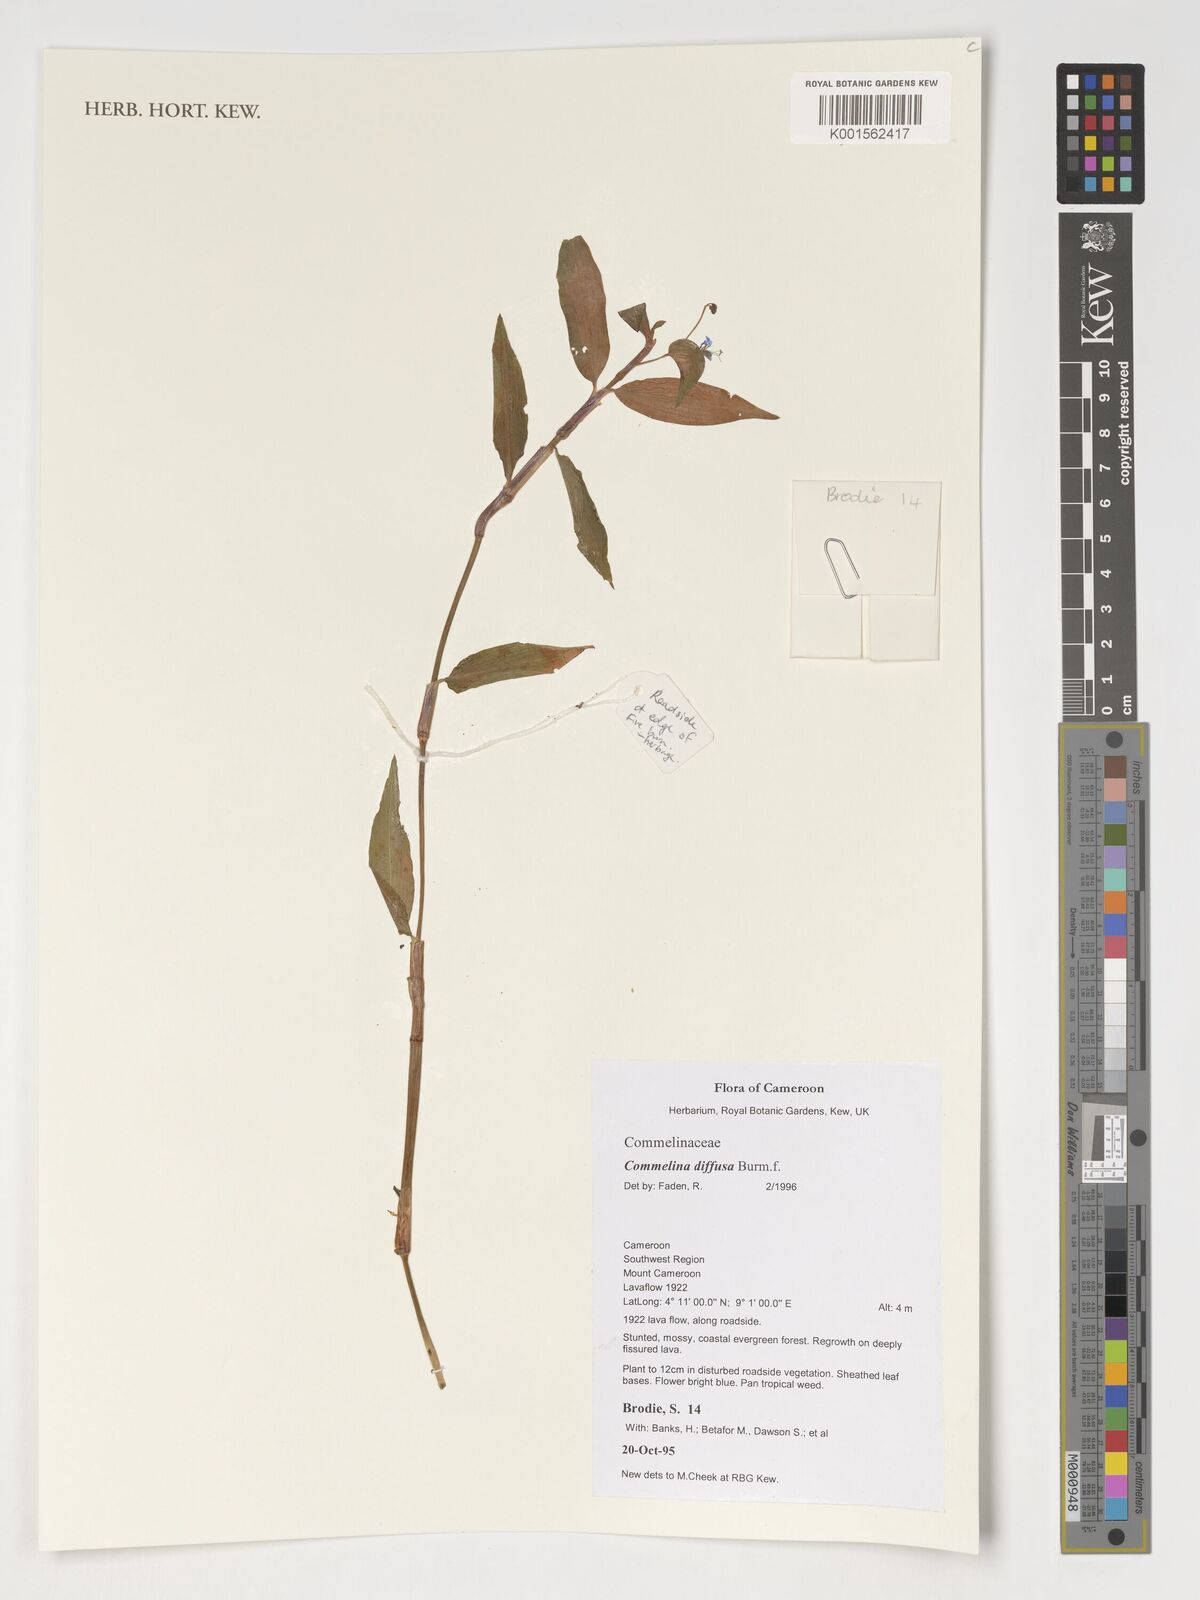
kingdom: Plantae
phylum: Tracheophyta
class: Liliopsida
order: Commelinales
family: Commelinaceae
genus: Commelina
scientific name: Commelina diffusa
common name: Climbing dayflower
